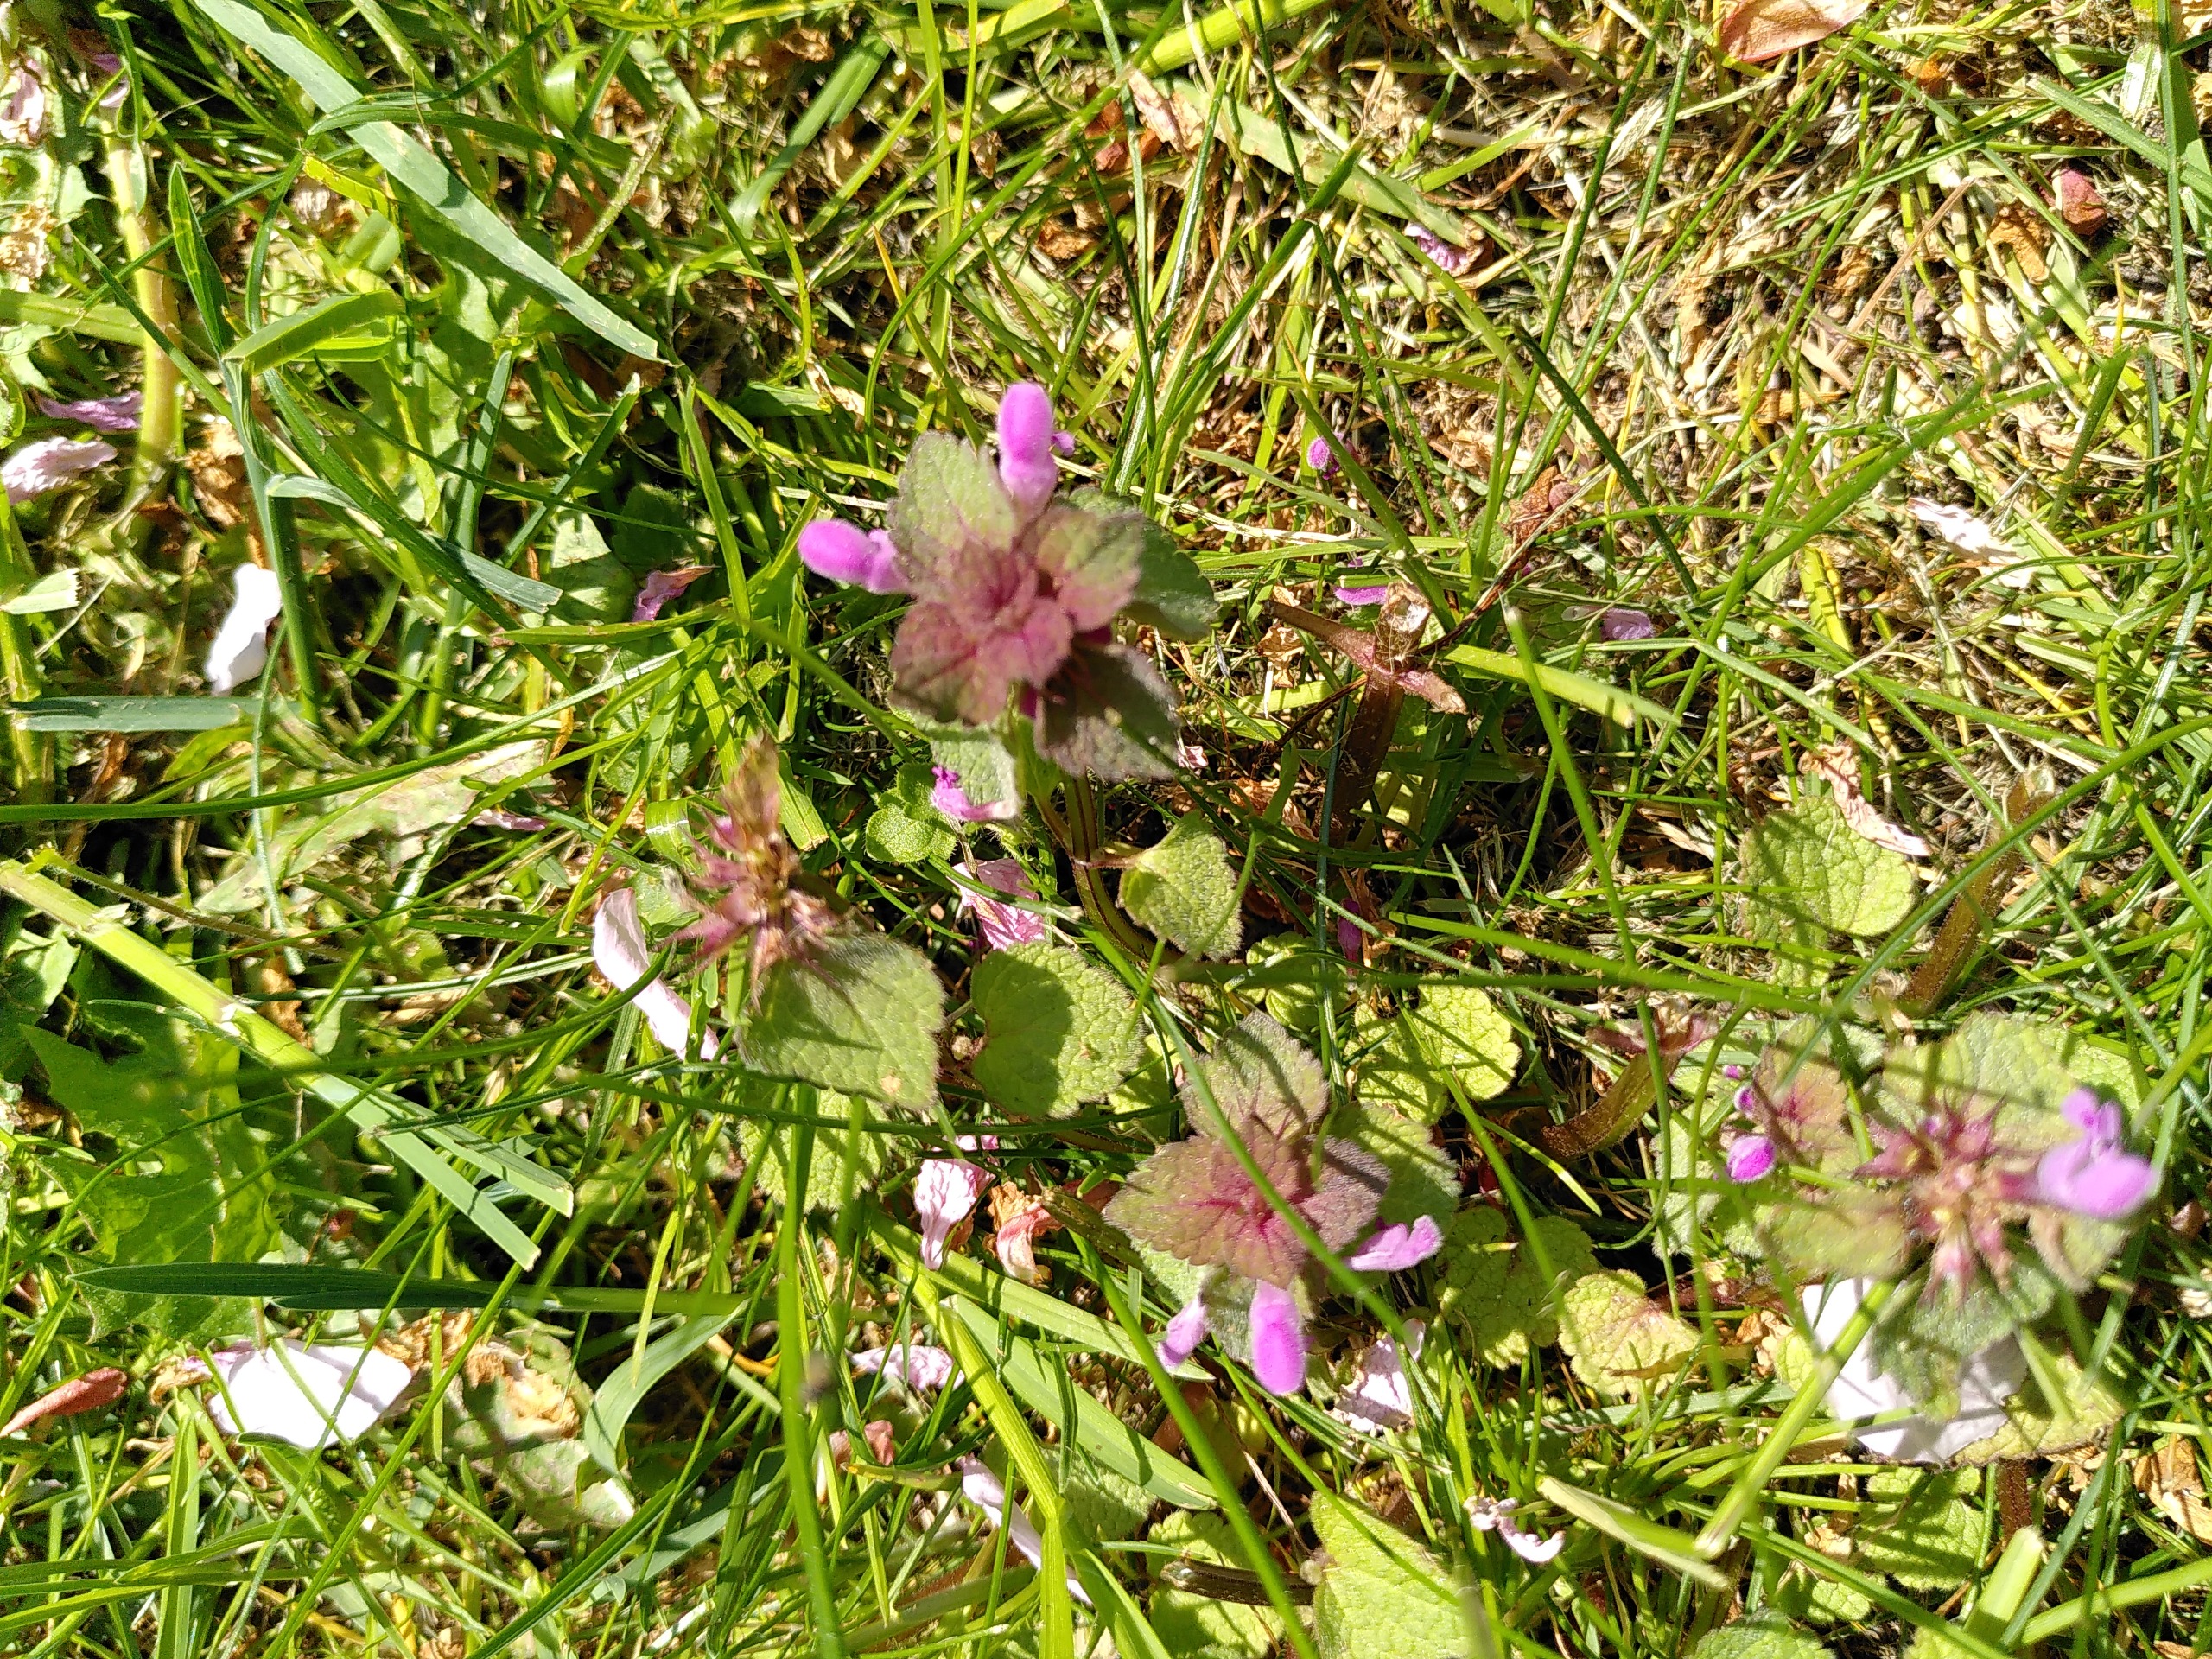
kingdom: Plantae
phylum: Tracheophyta
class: Magnoliopsida
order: Lamiales
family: Lamiaceae
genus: Lamium
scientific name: Lamium purpureum
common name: Rød tvetand
